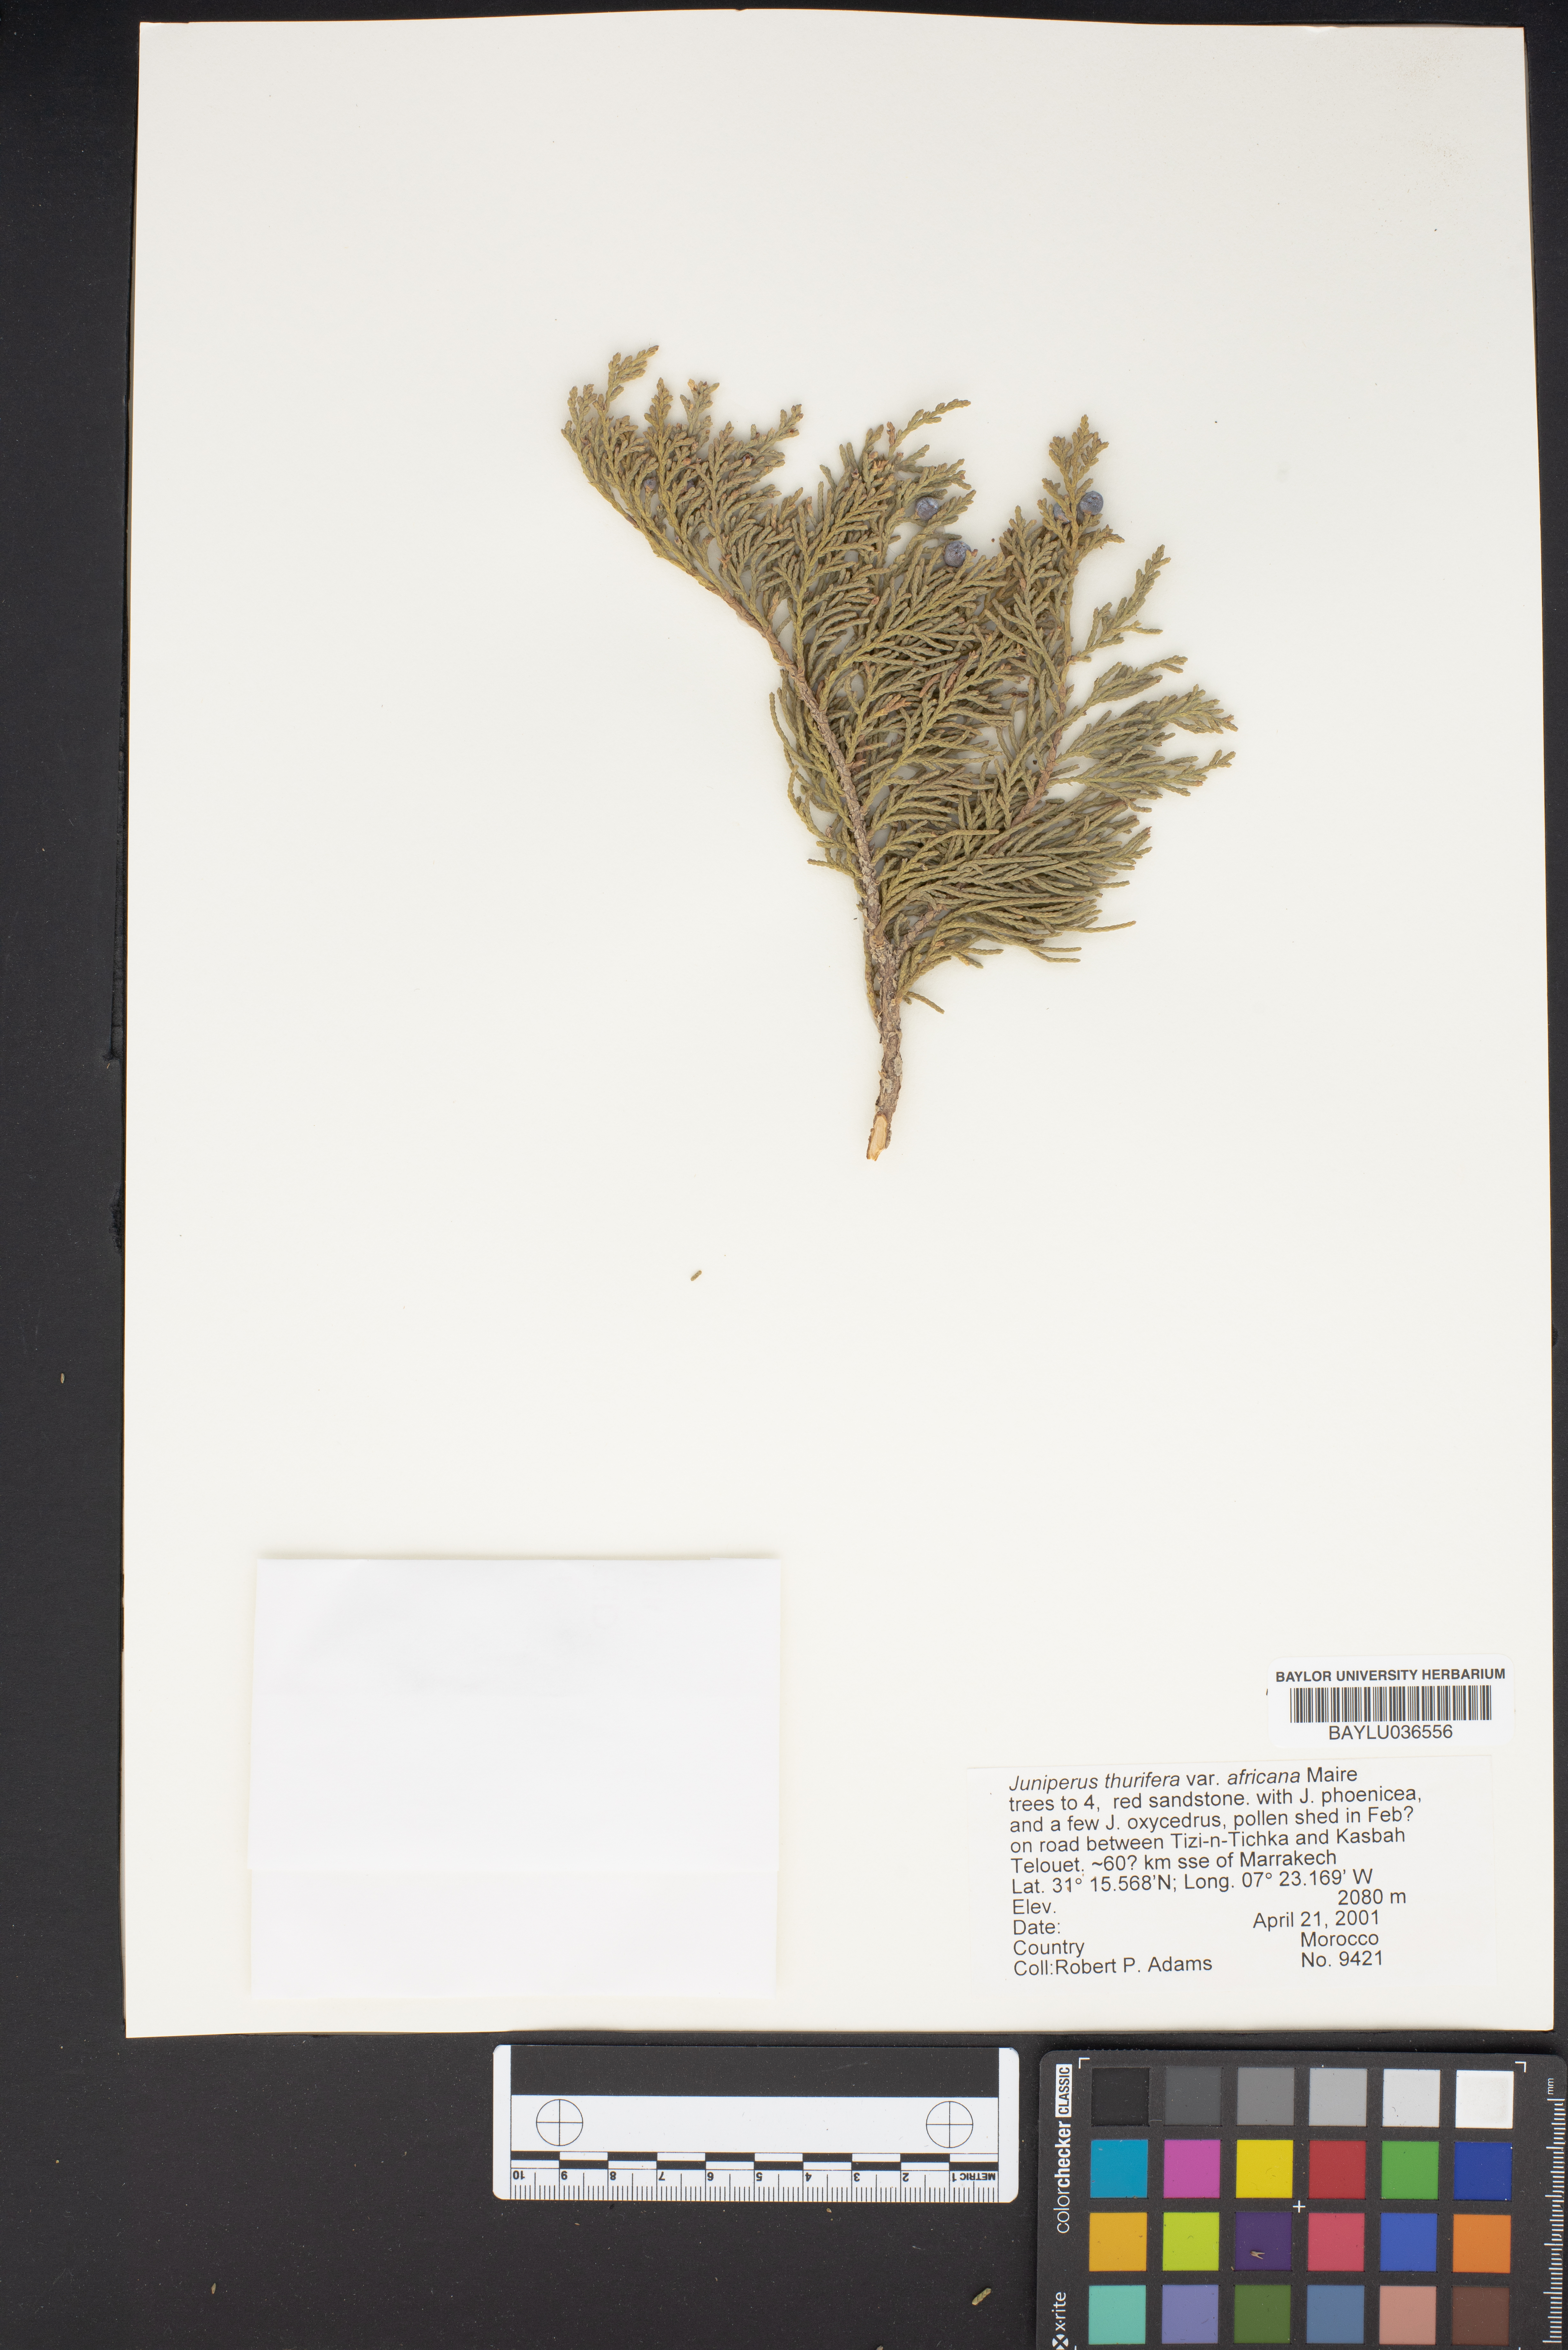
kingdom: Plantae
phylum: Tracheophyta
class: Pinopsida
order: Pinales
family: Cupressaceae
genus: Juniperus
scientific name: Juniperus thurifera
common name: Incense juniper
